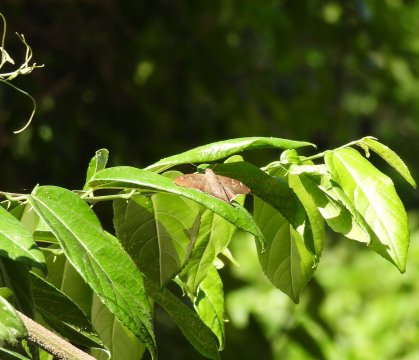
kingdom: Animalia
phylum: Arthropoda
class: Insecta
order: Lepidoptera
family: Hesperiidae
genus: Polythrix
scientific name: Polythrix asine
